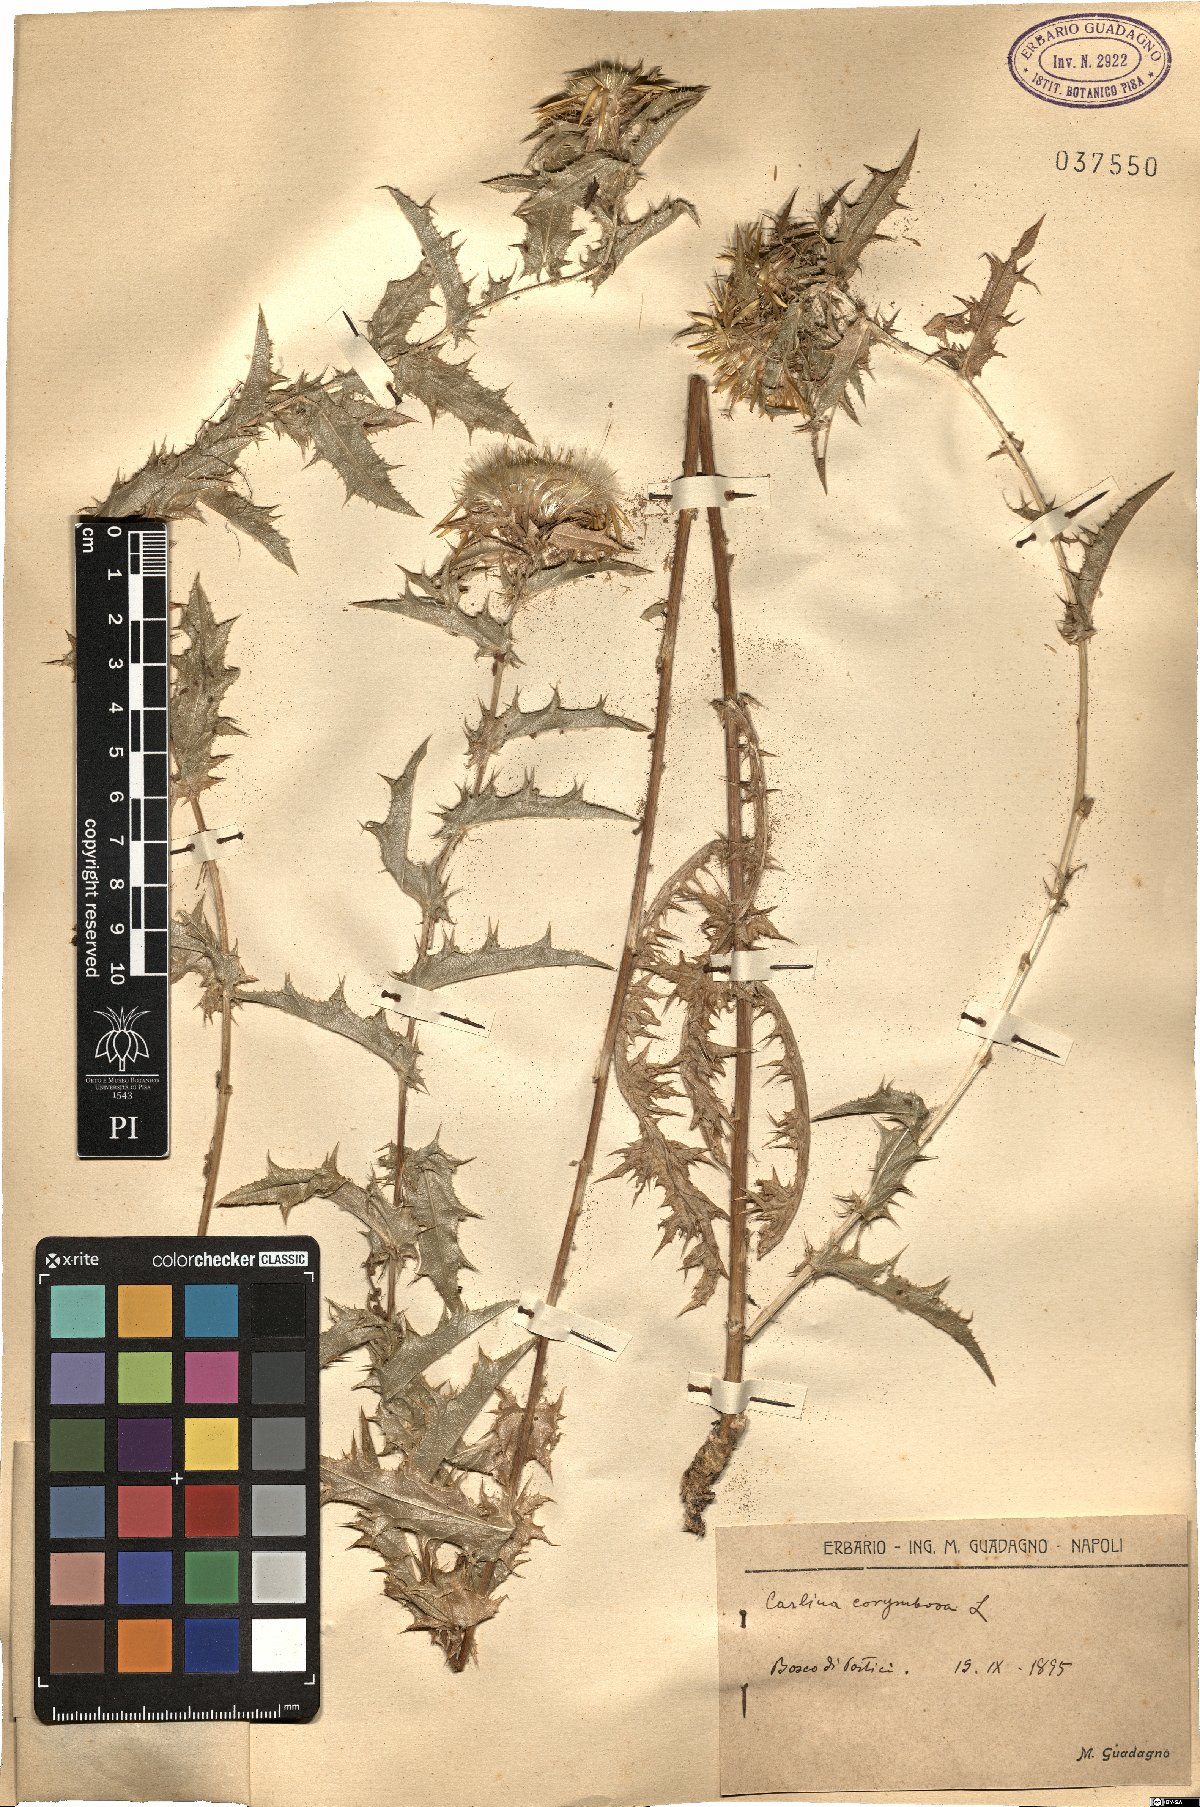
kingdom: Plantae
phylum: Tracheophyta
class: Magnoliopsida
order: Asterales
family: Asteraceae
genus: Carlina
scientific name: Carlina corymbosa
